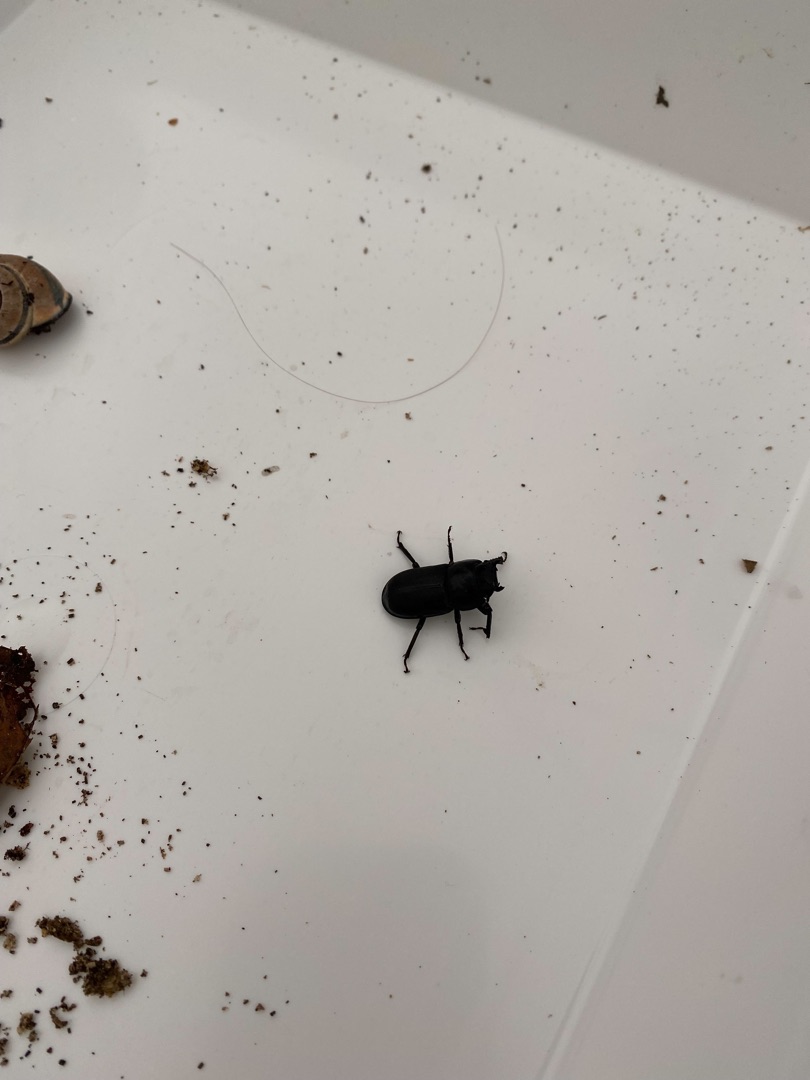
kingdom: Animalia
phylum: Arthropoda
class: Insecta
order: Coleoptera
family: Lucanidae
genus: Dorcus
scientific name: Dorcus parallelipipedus
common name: Bøghjort
